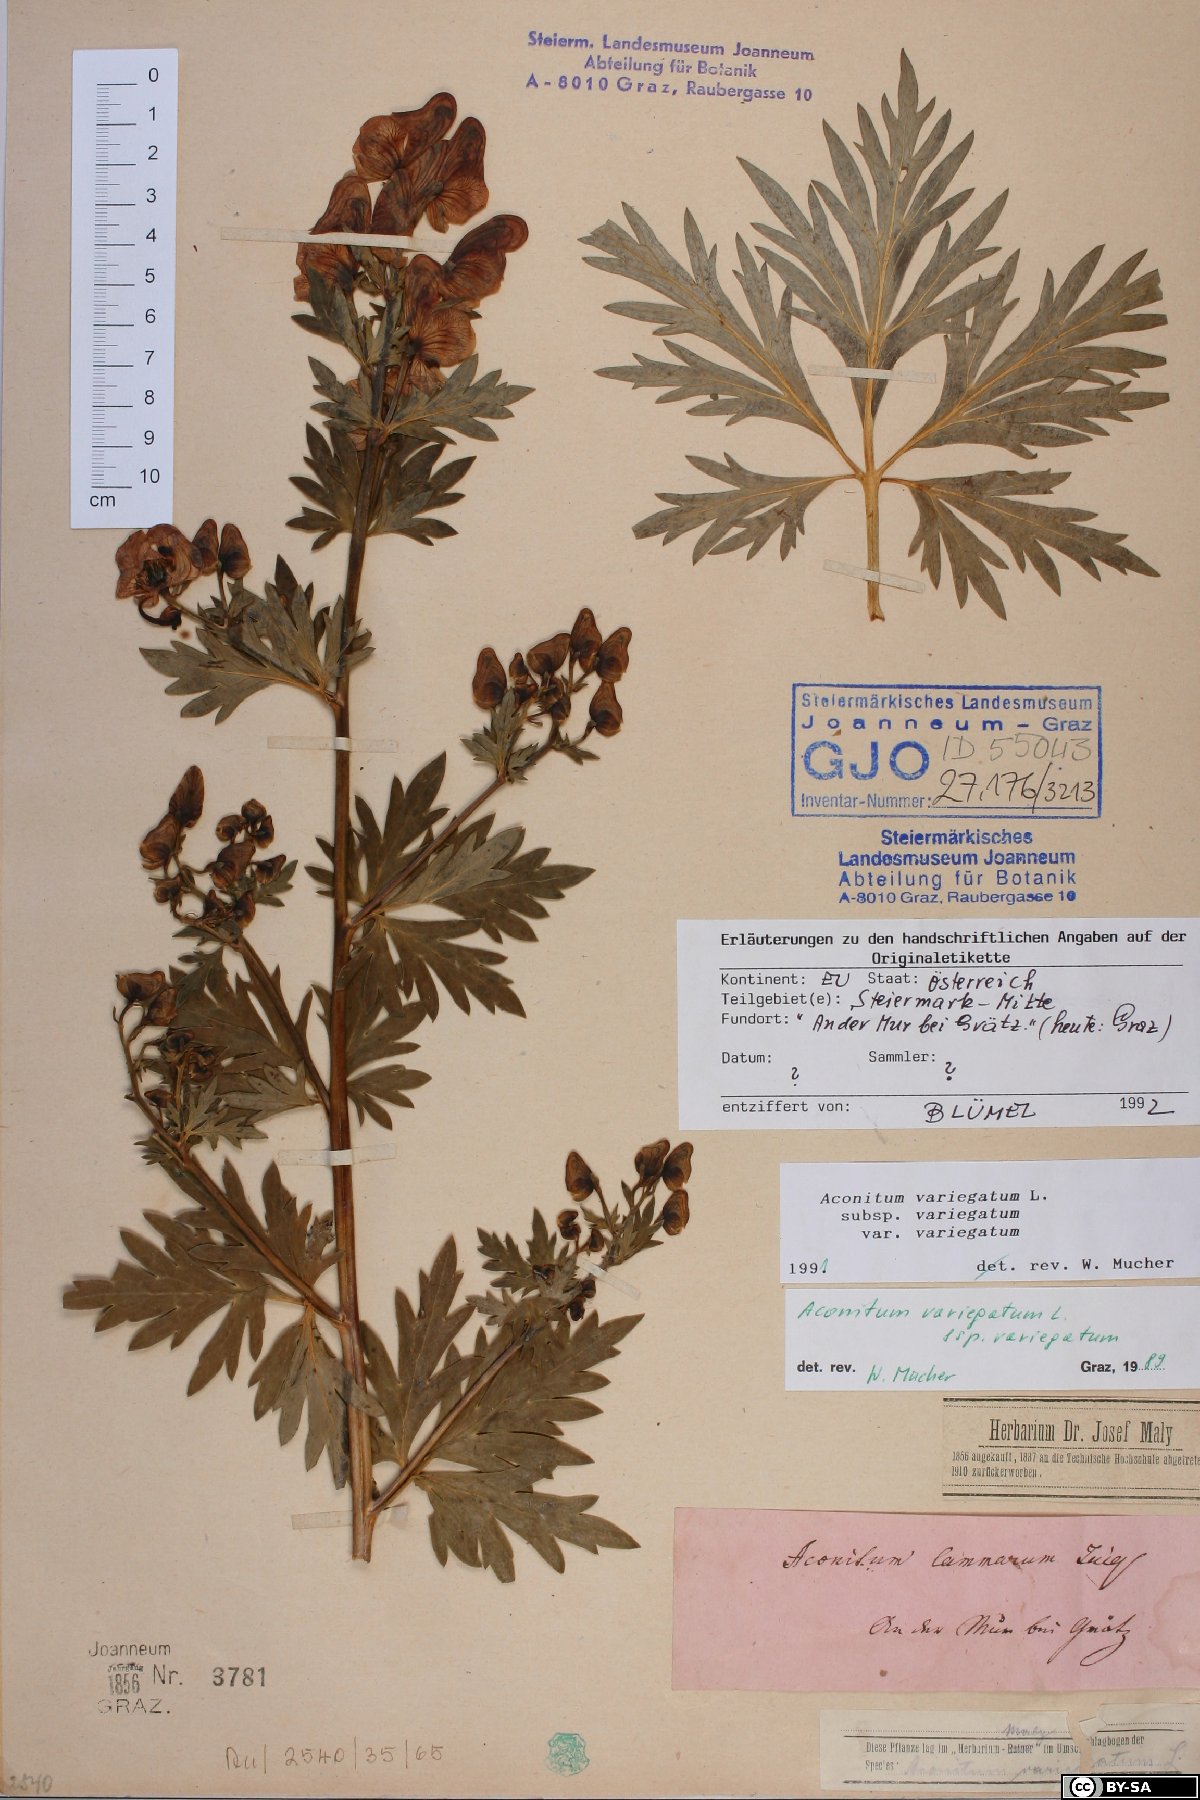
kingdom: Plantae
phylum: Tracheophyta
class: Magnoliopsida
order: Ranunculales
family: Ranunculaceae
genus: Aconitum
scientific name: Aconitum variegatum
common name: Manchurian monkshood
